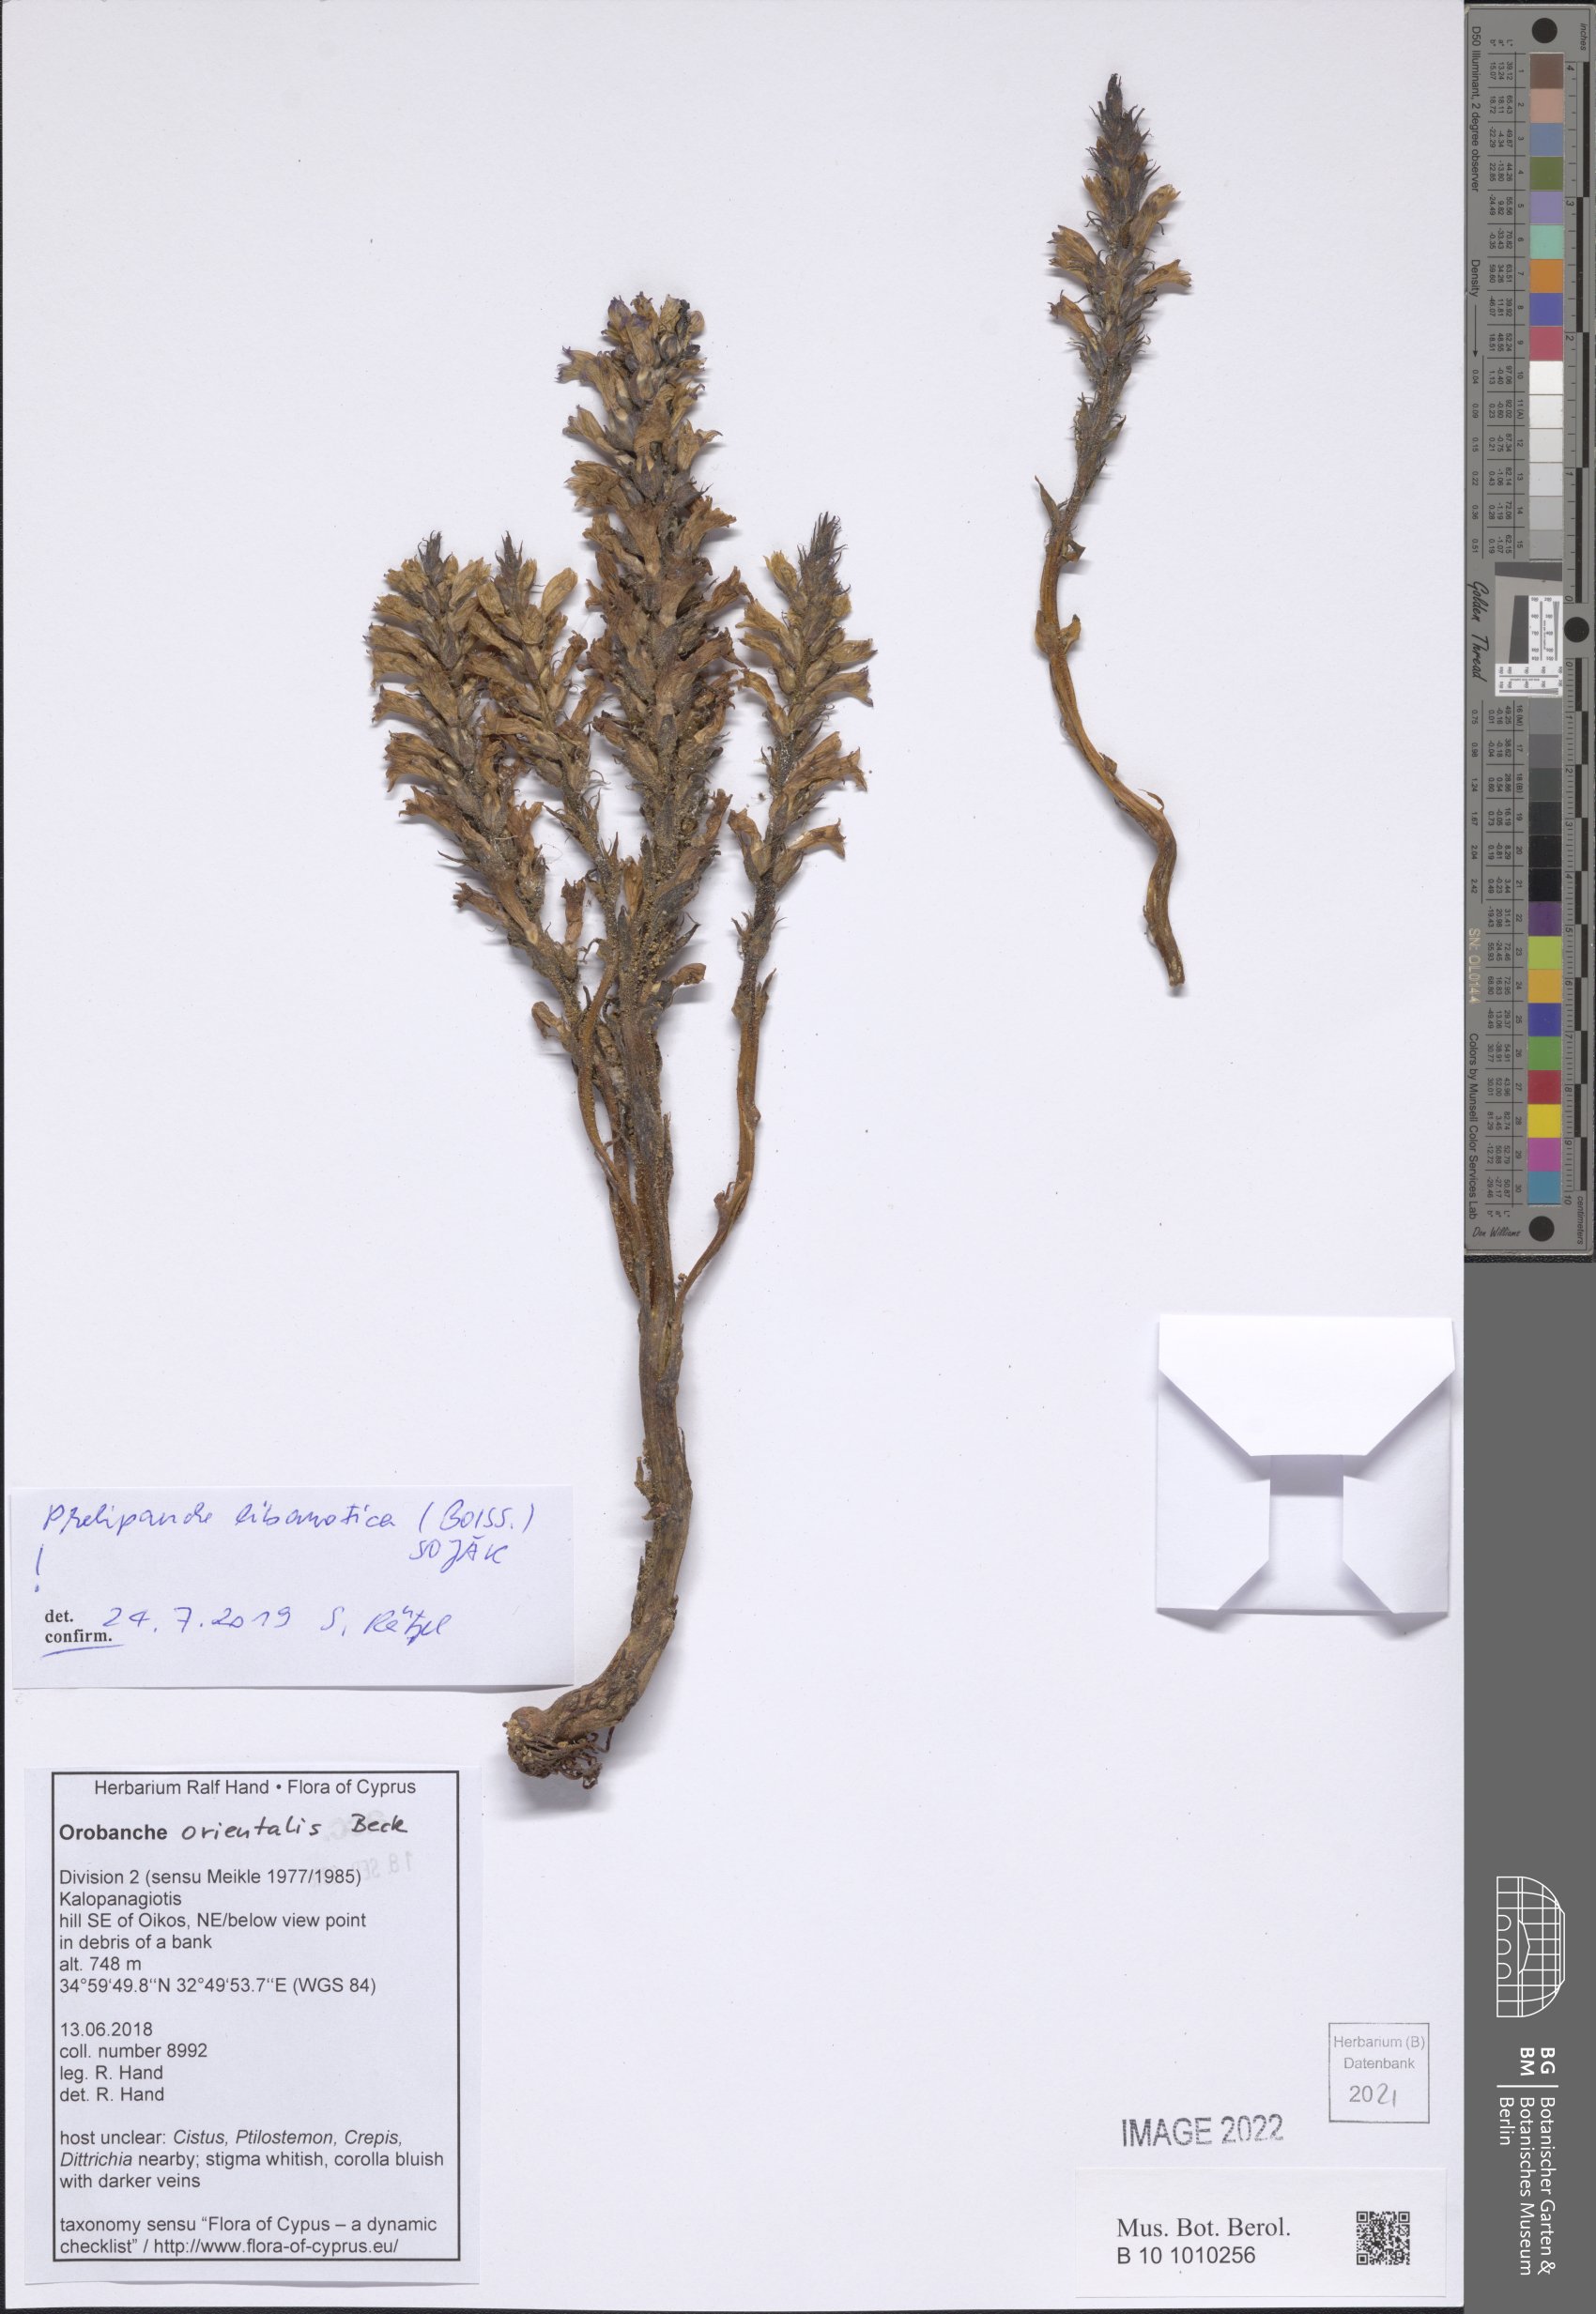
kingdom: Plantae
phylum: Tracheophyta
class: Magnoliopsida
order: Lamiales
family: Orobanchaceae
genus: Phelipanche
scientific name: Phelipanche libanotica
